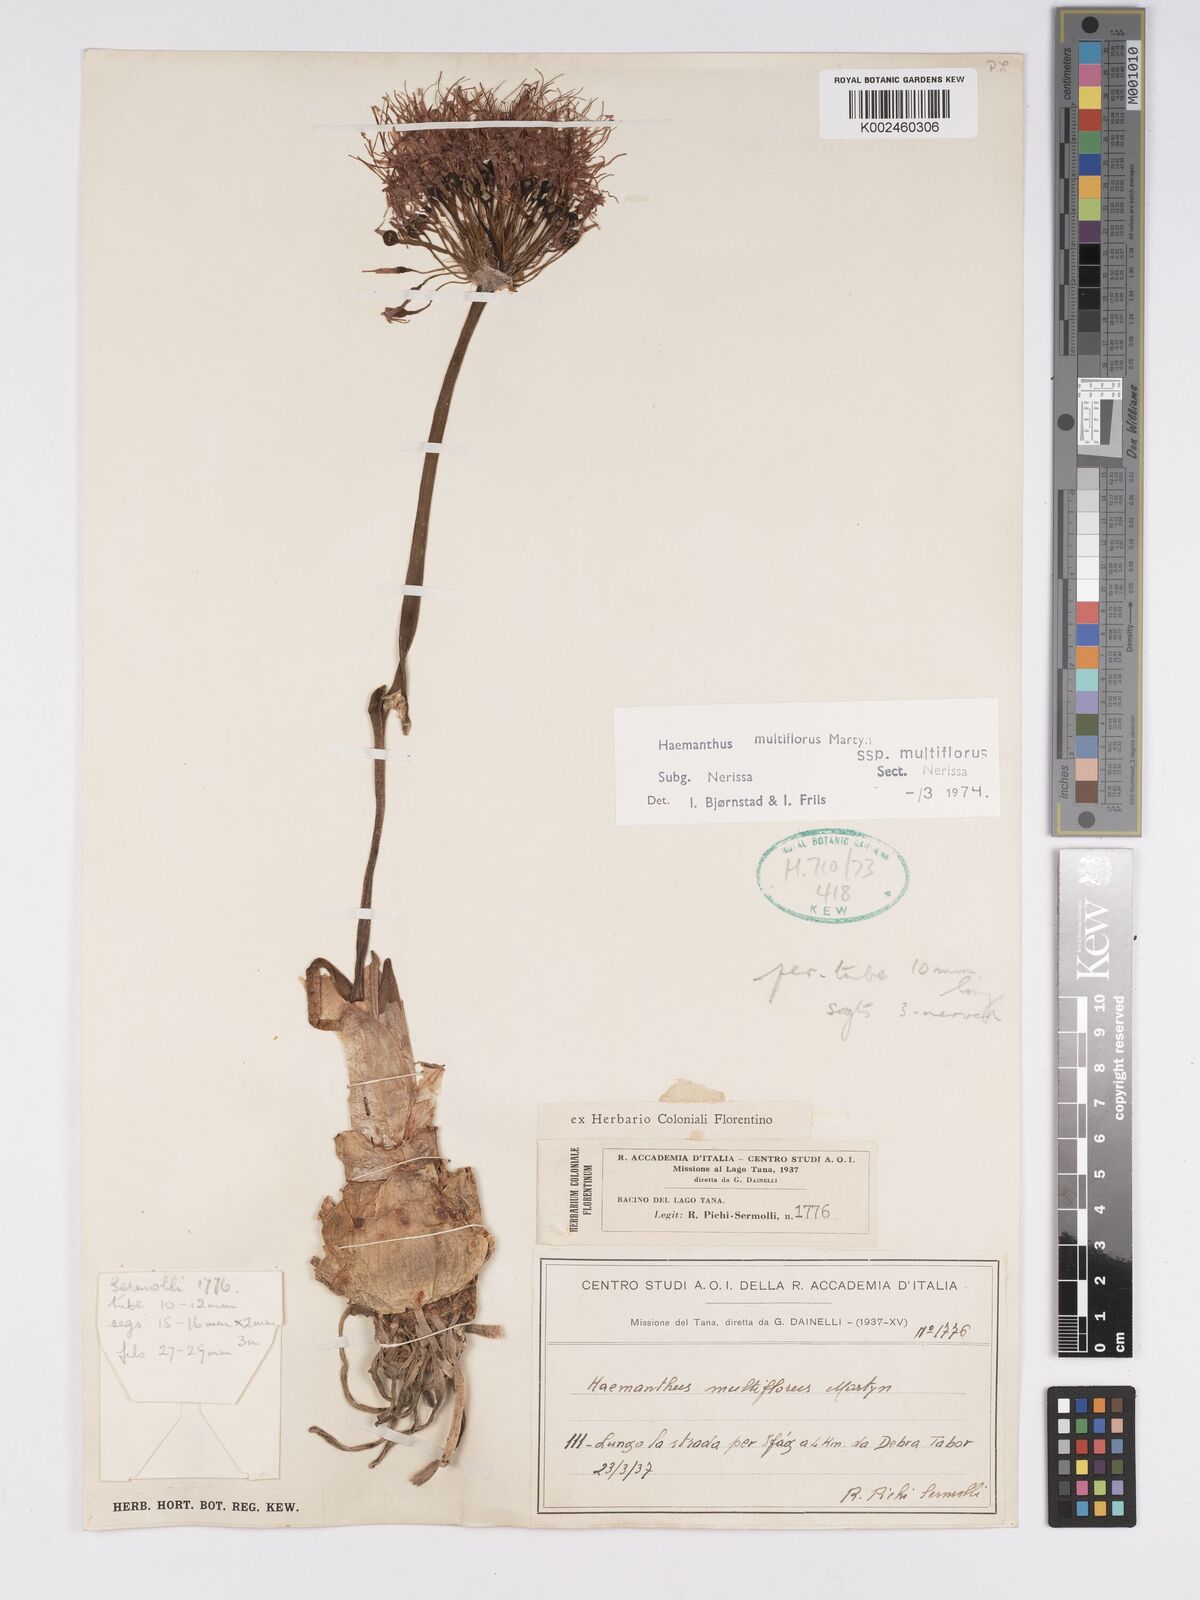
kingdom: Plantae
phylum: Tracheophyta
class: Liliopsida
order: Asparagales
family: Amaryllidaceae
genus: Scadoxus
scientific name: Scadoxus multiflorus
